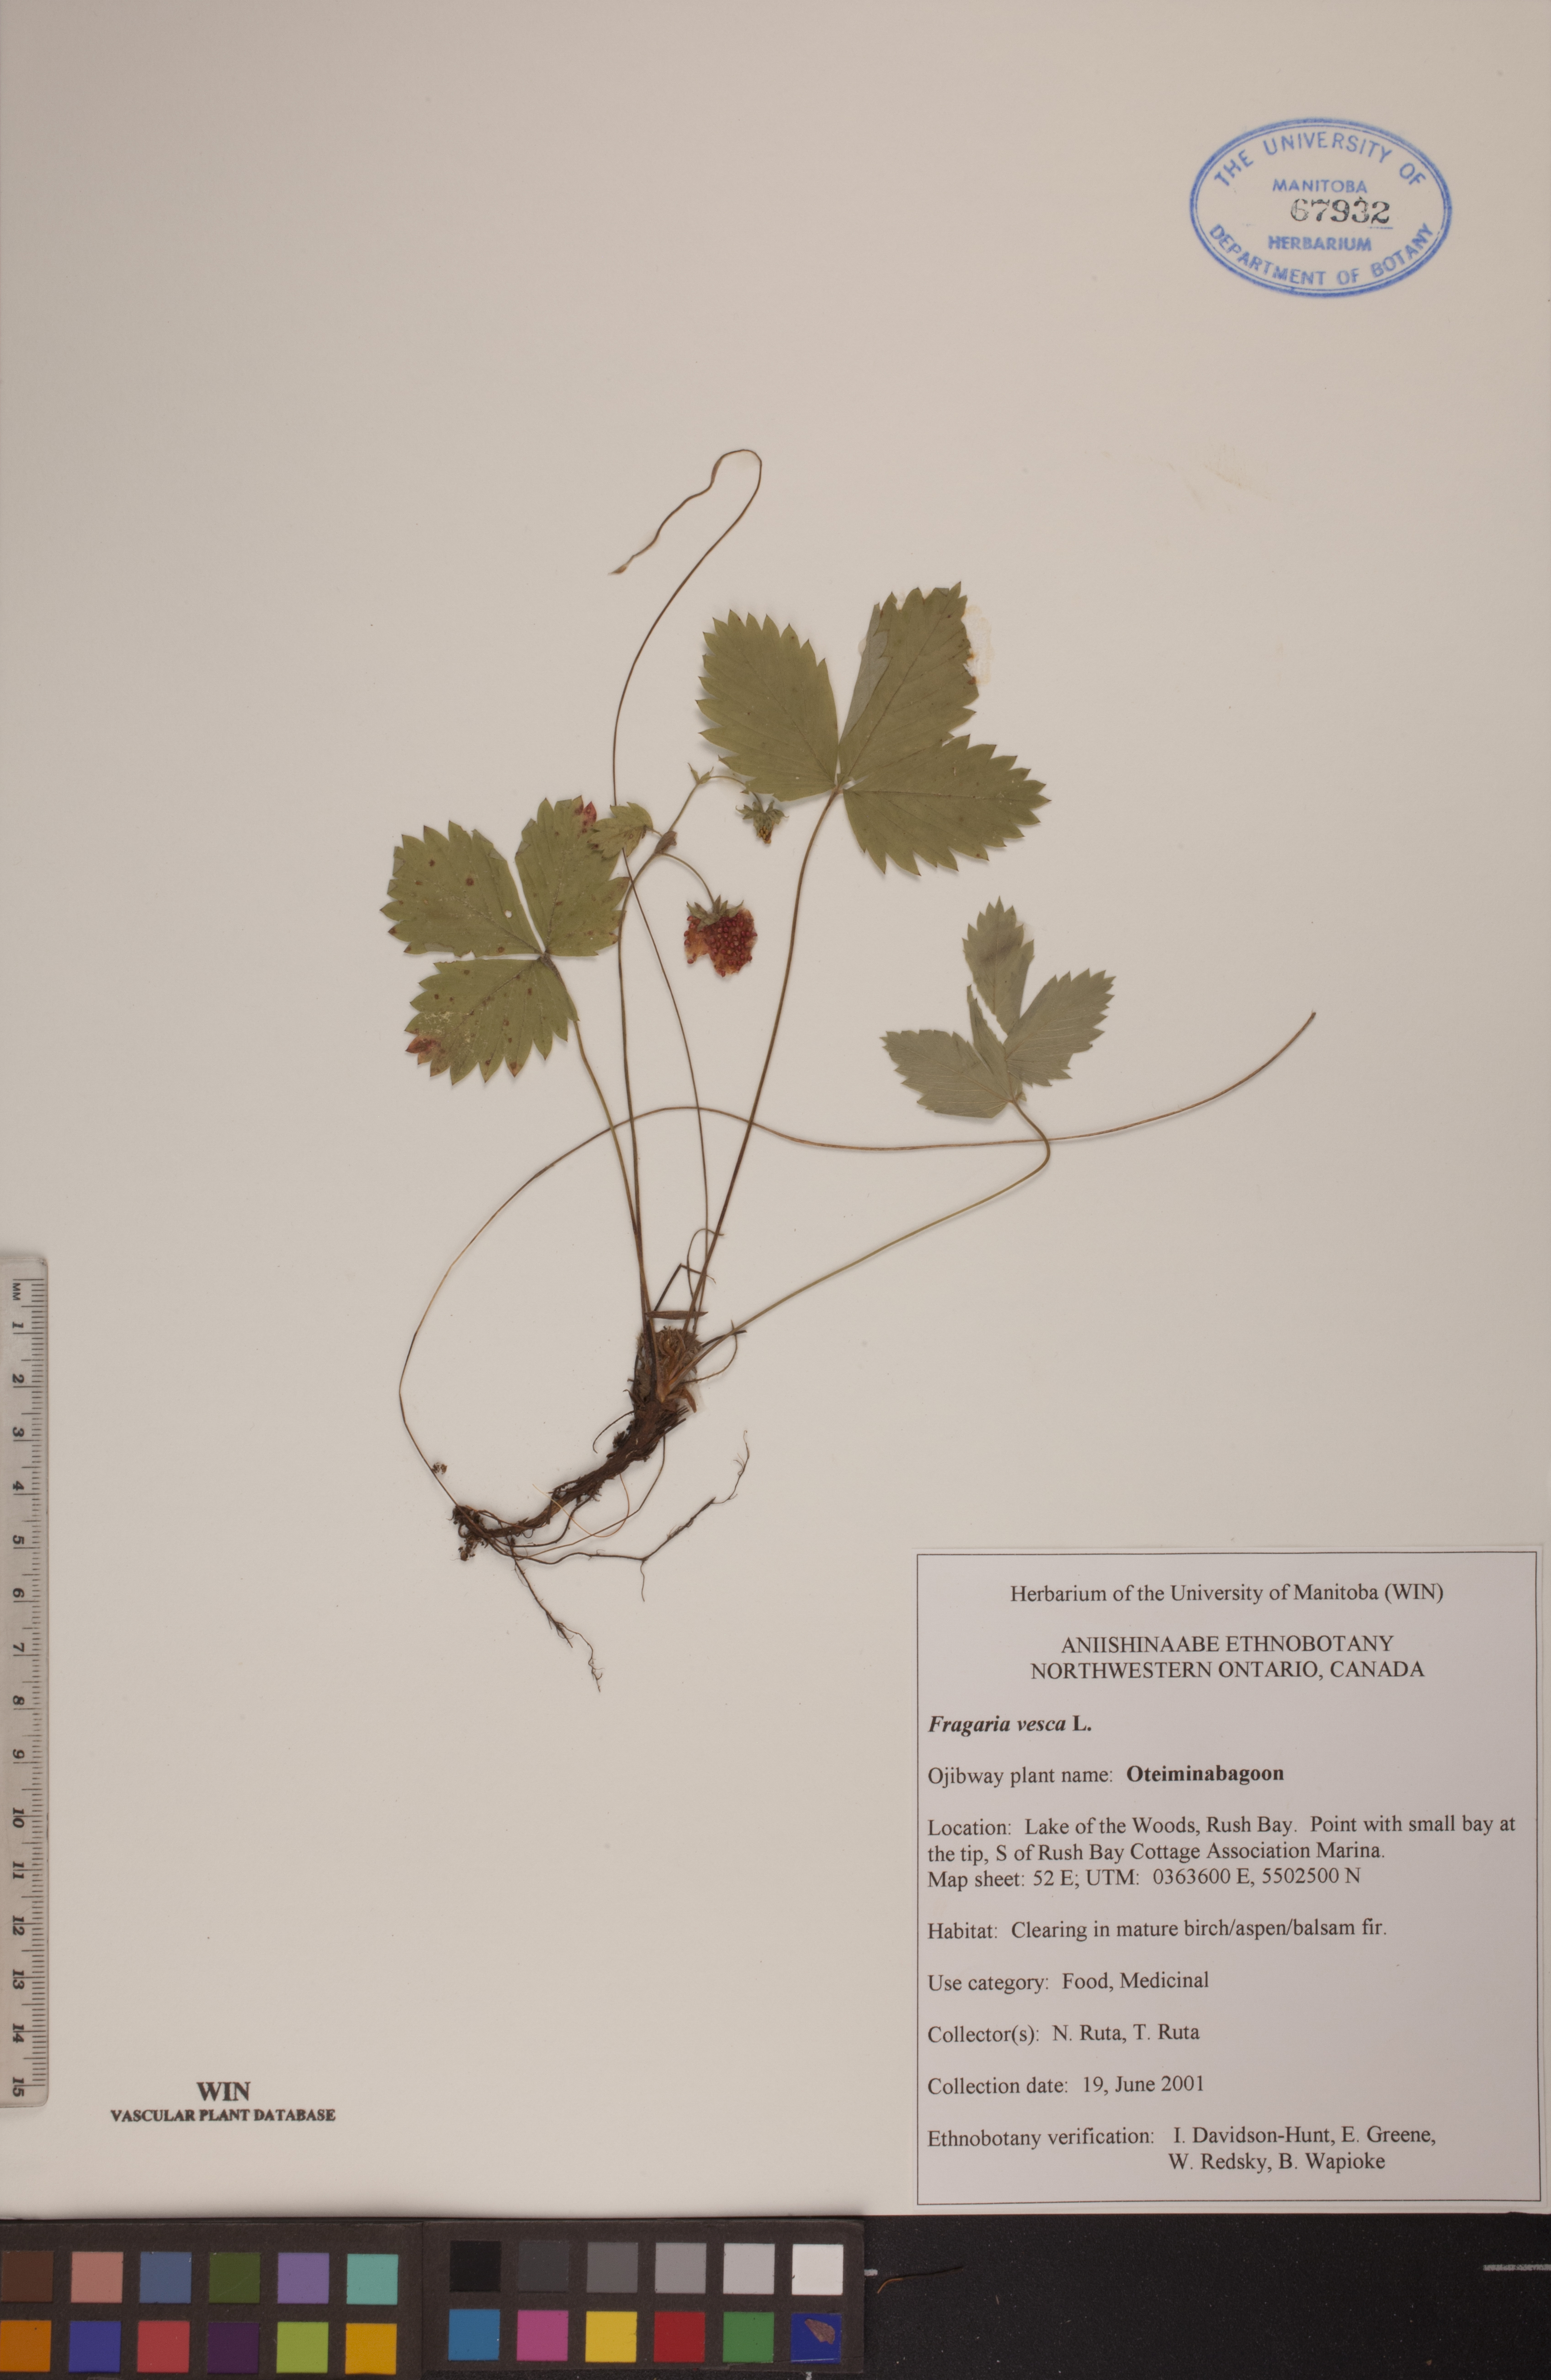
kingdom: Plantae
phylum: Tracheophyta
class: Magnoliopsida
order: Rosales
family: Rosaceae
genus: Fragaria
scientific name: Fragaria vesca
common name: Wild strawberry
